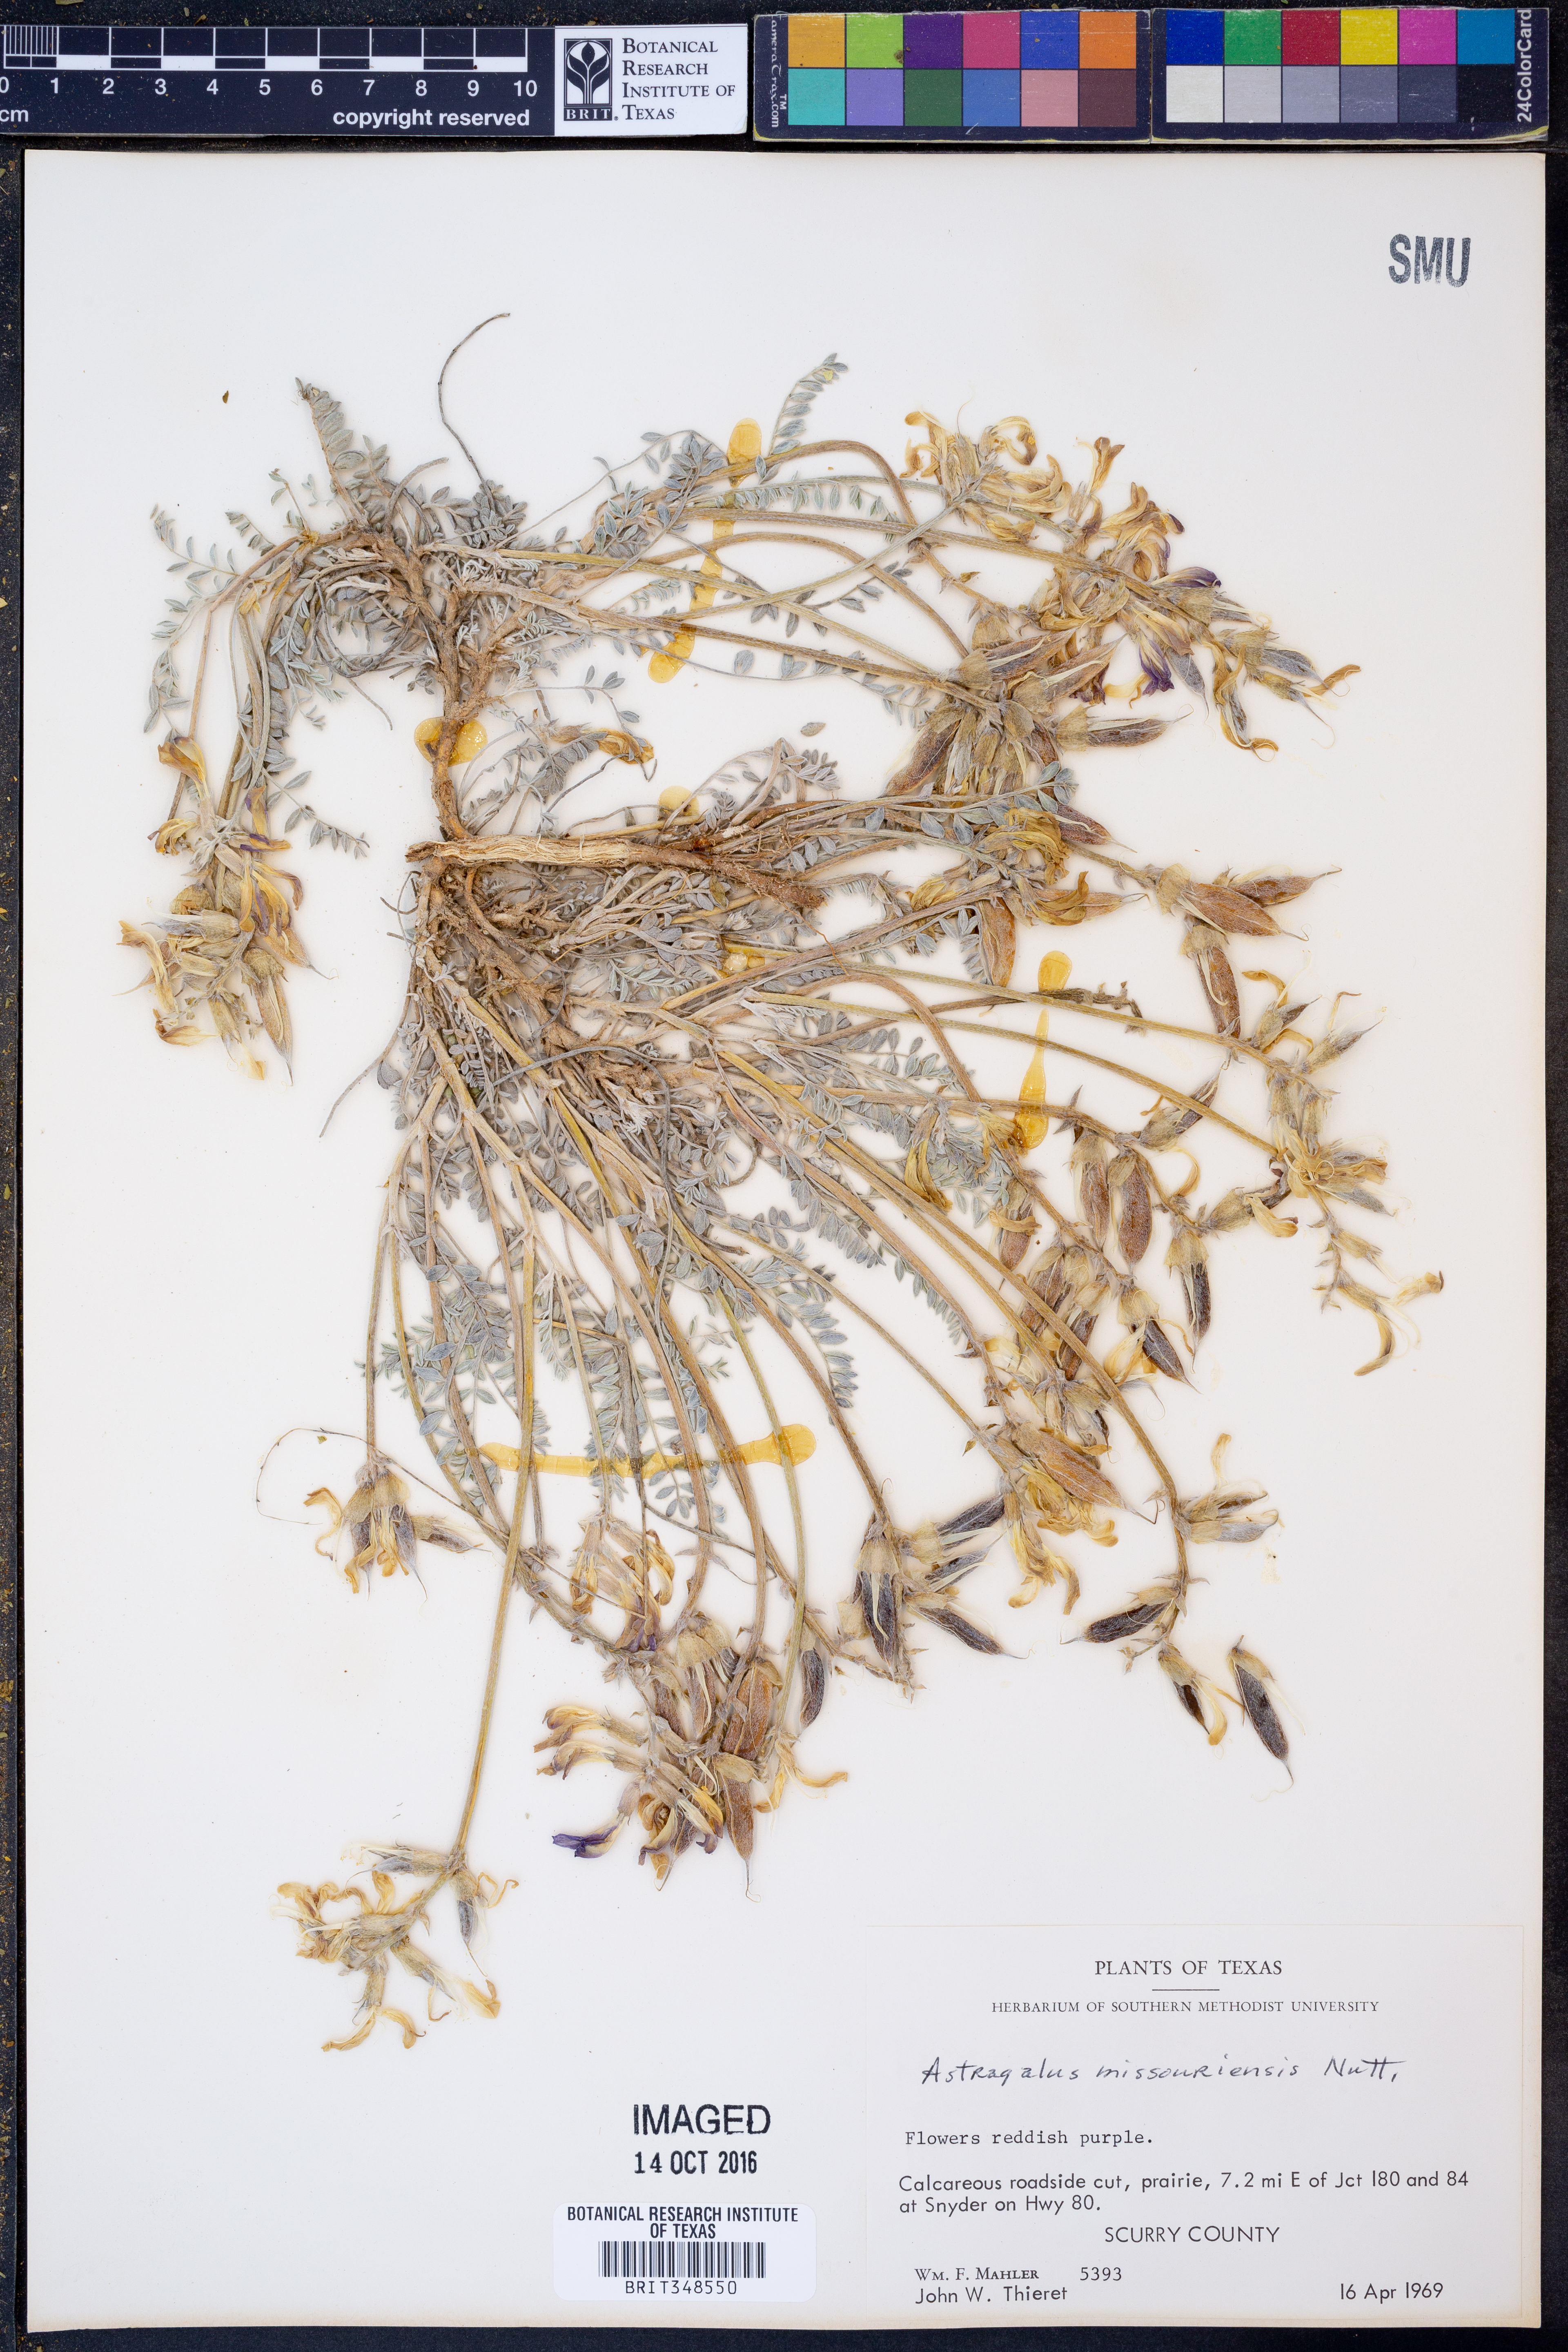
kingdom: Plantae
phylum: Tracheophyta
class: Magnoliopsida
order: Fabales
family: Fabaceae
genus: Astragalus
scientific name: Astragalus missouriensis
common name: Missouri milk-vetch
